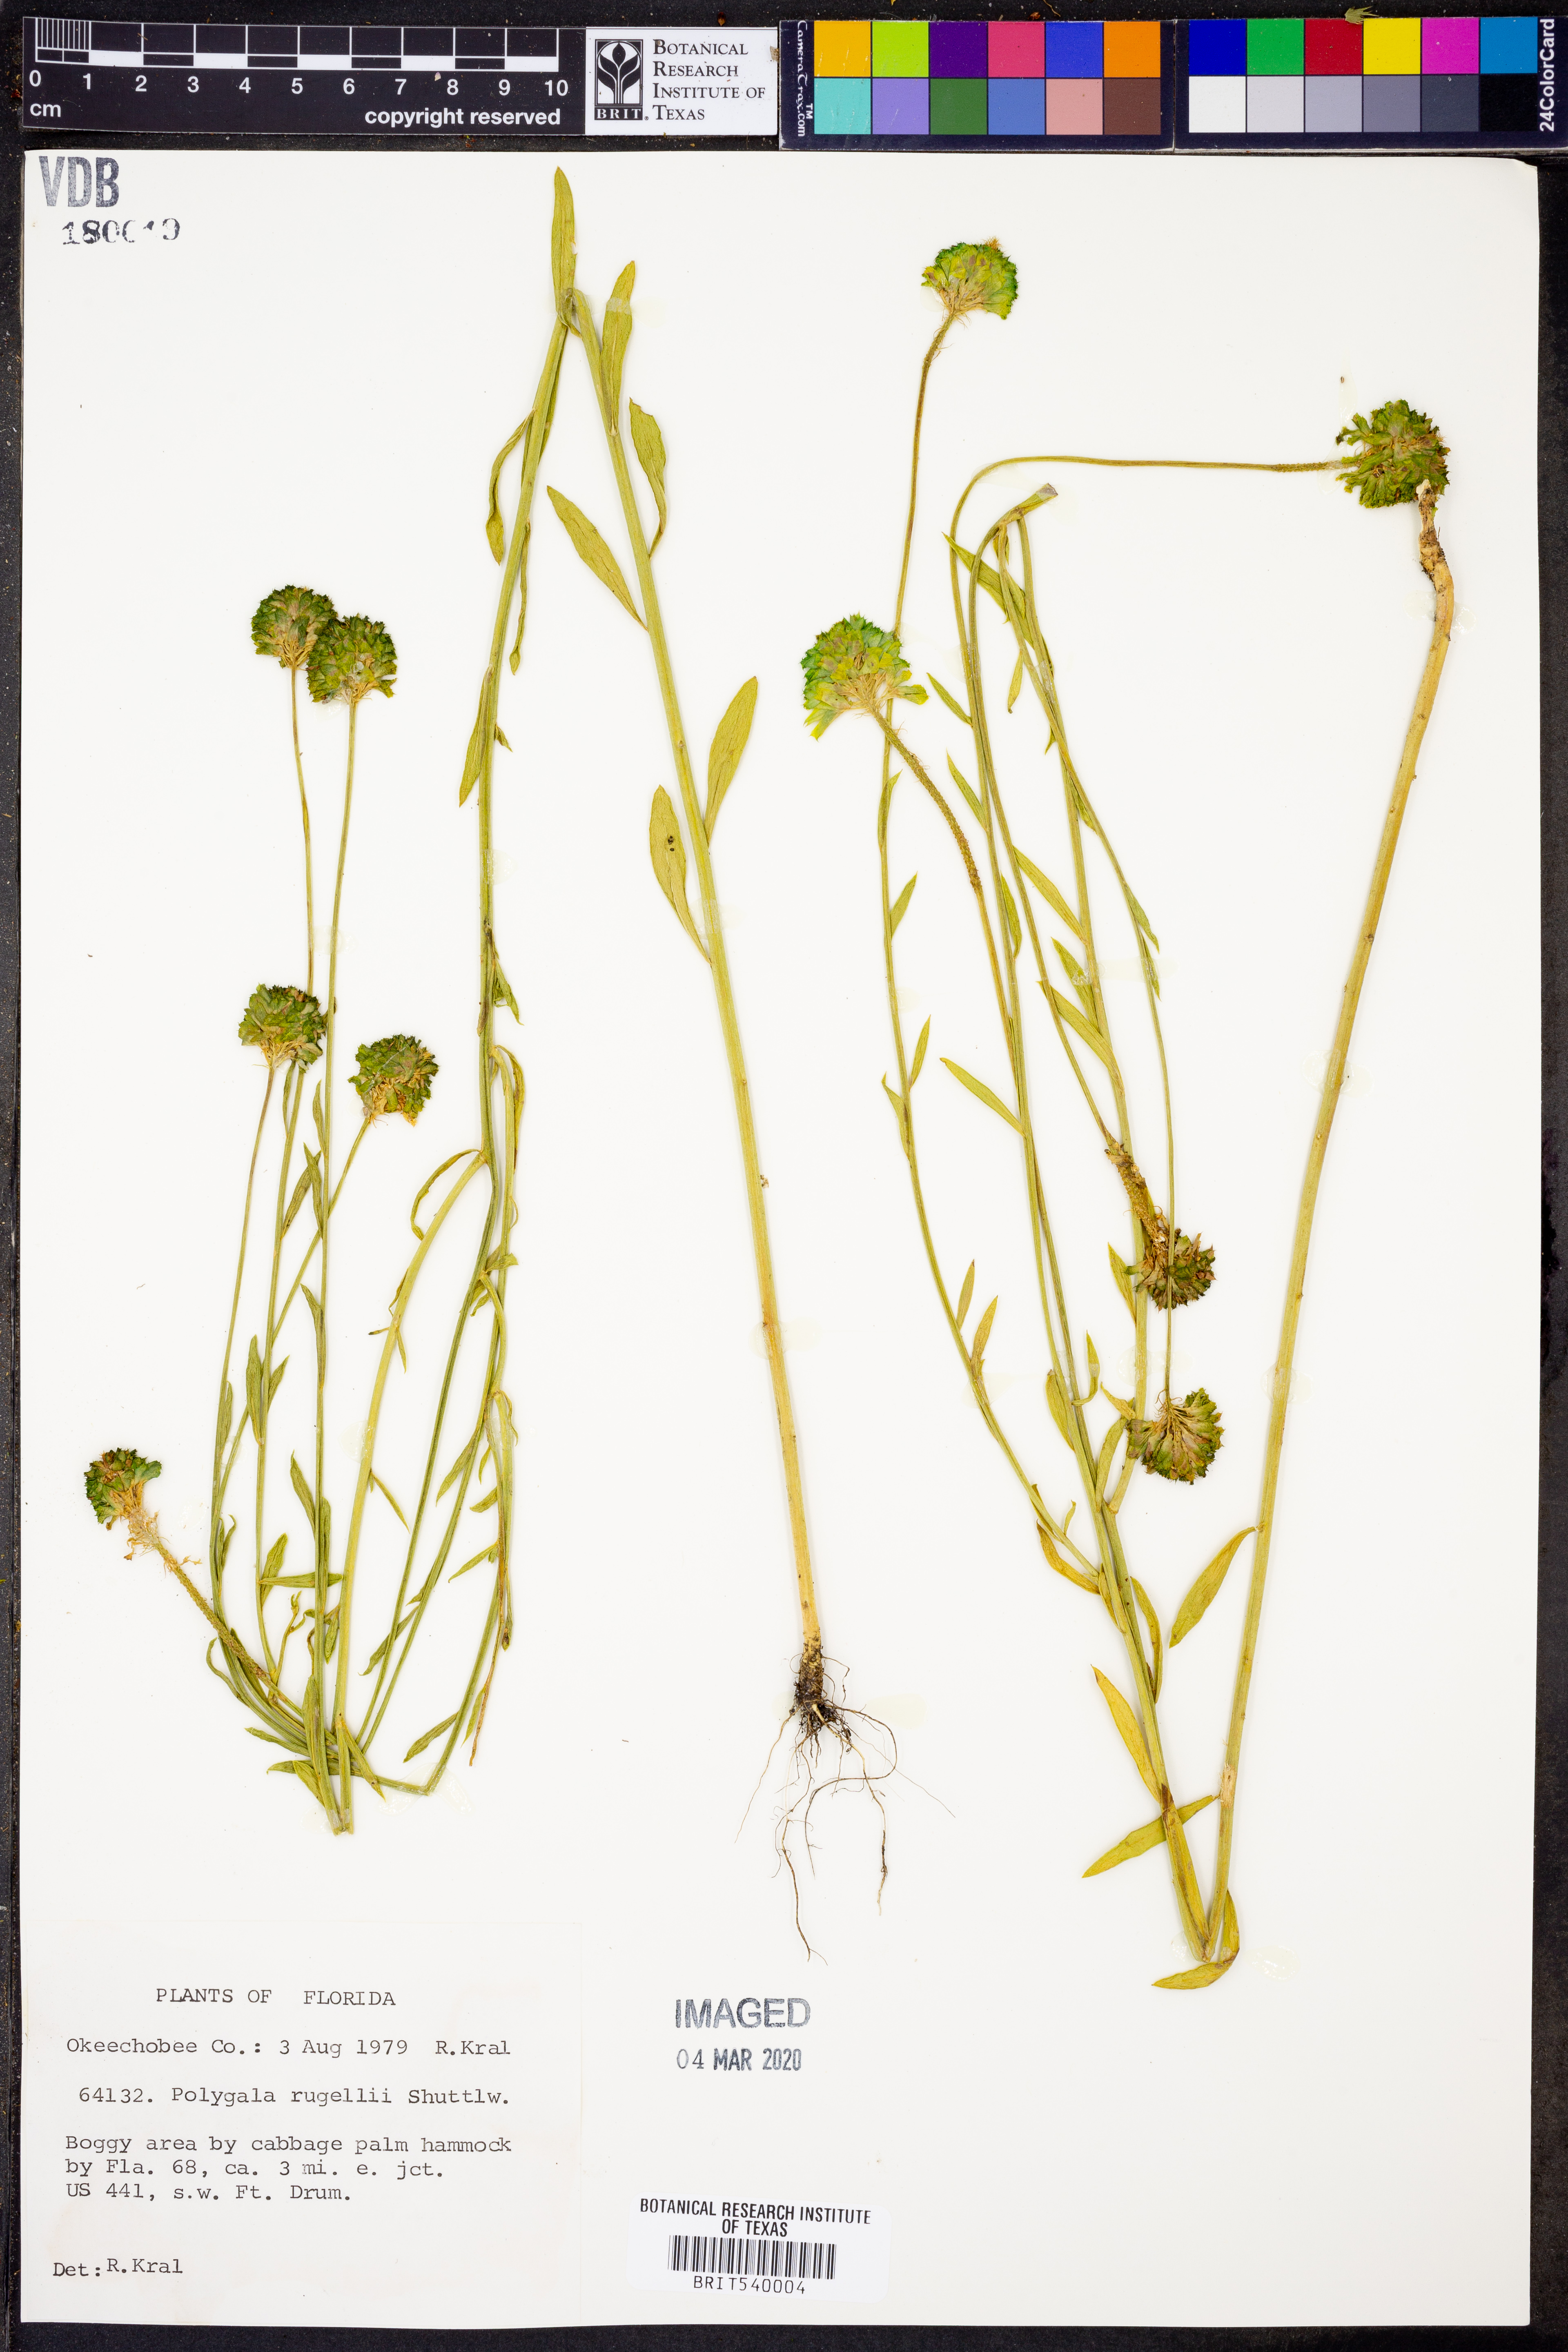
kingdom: Plantae
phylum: Tracheophyta
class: Magnoliopsida
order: Fabales
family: Polygalaceae
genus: Polygala
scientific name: Polygala rugelii
